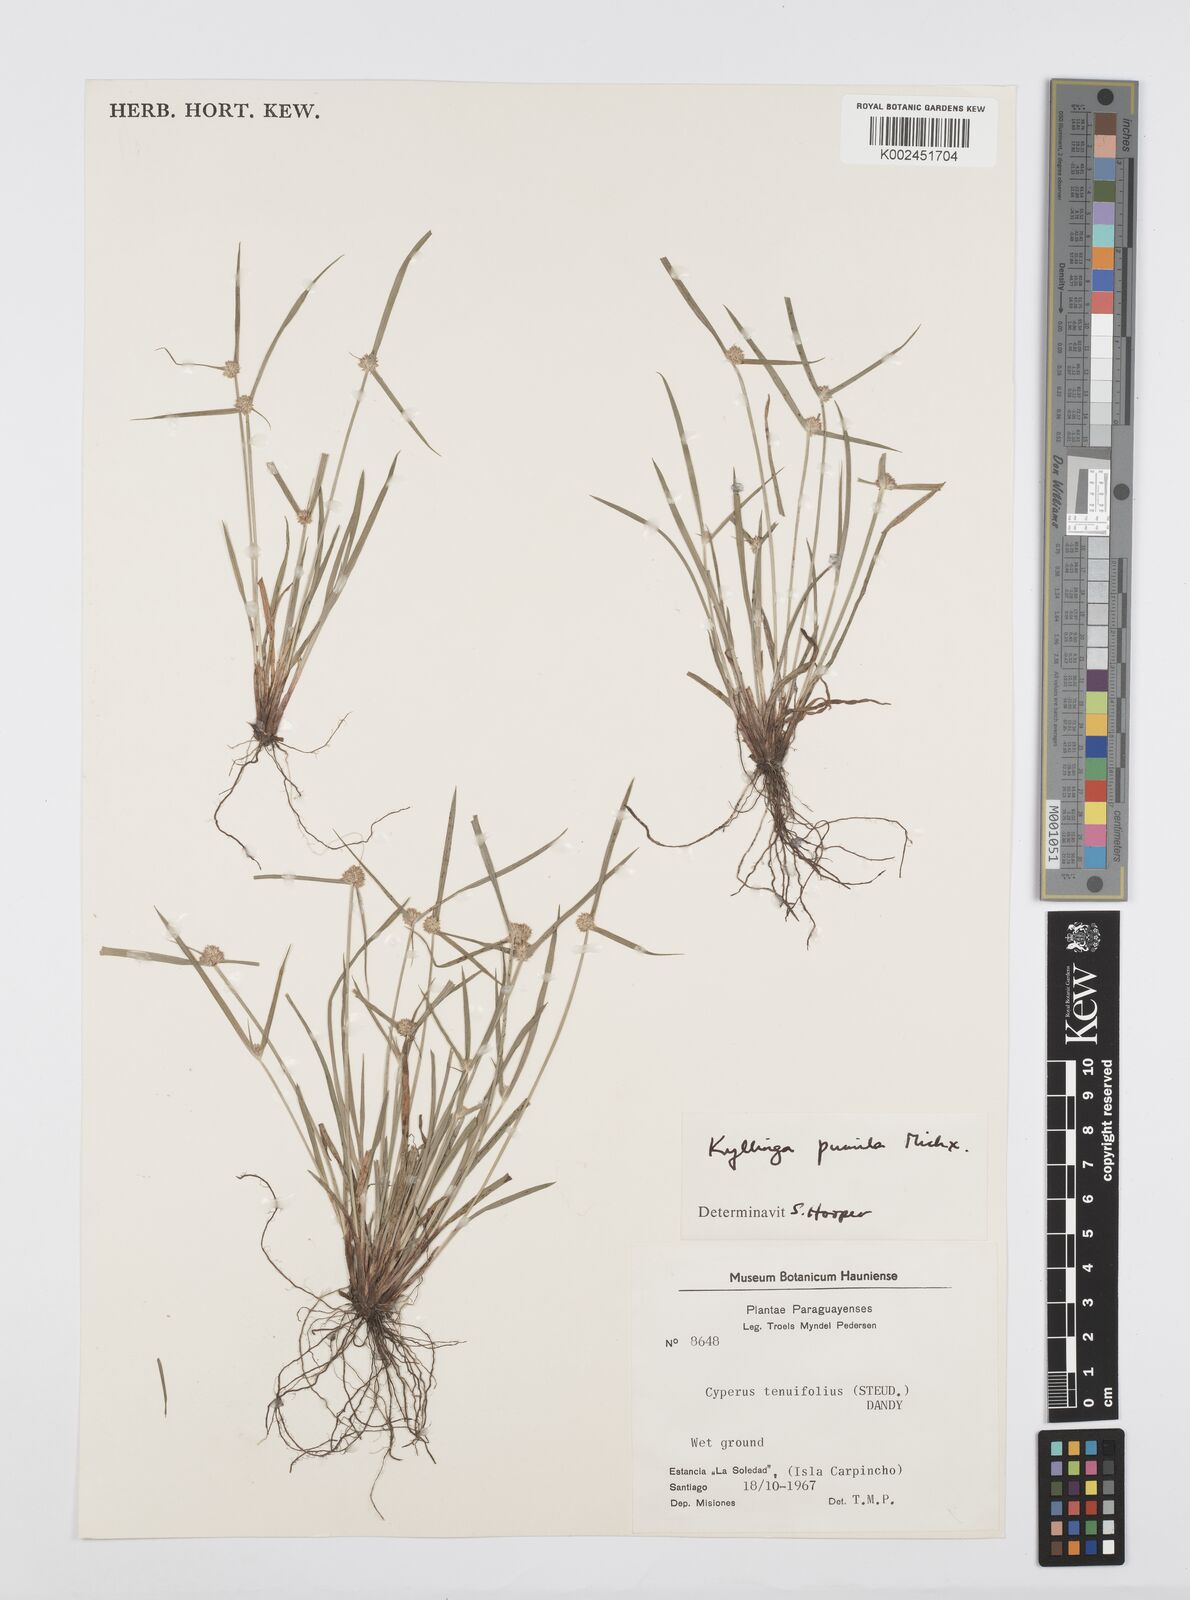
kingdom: Plantae
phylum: Tracheophyta
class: Liliopsida
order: Poales
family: Cyperaceae
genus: Cyperus
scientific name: Cyperus
